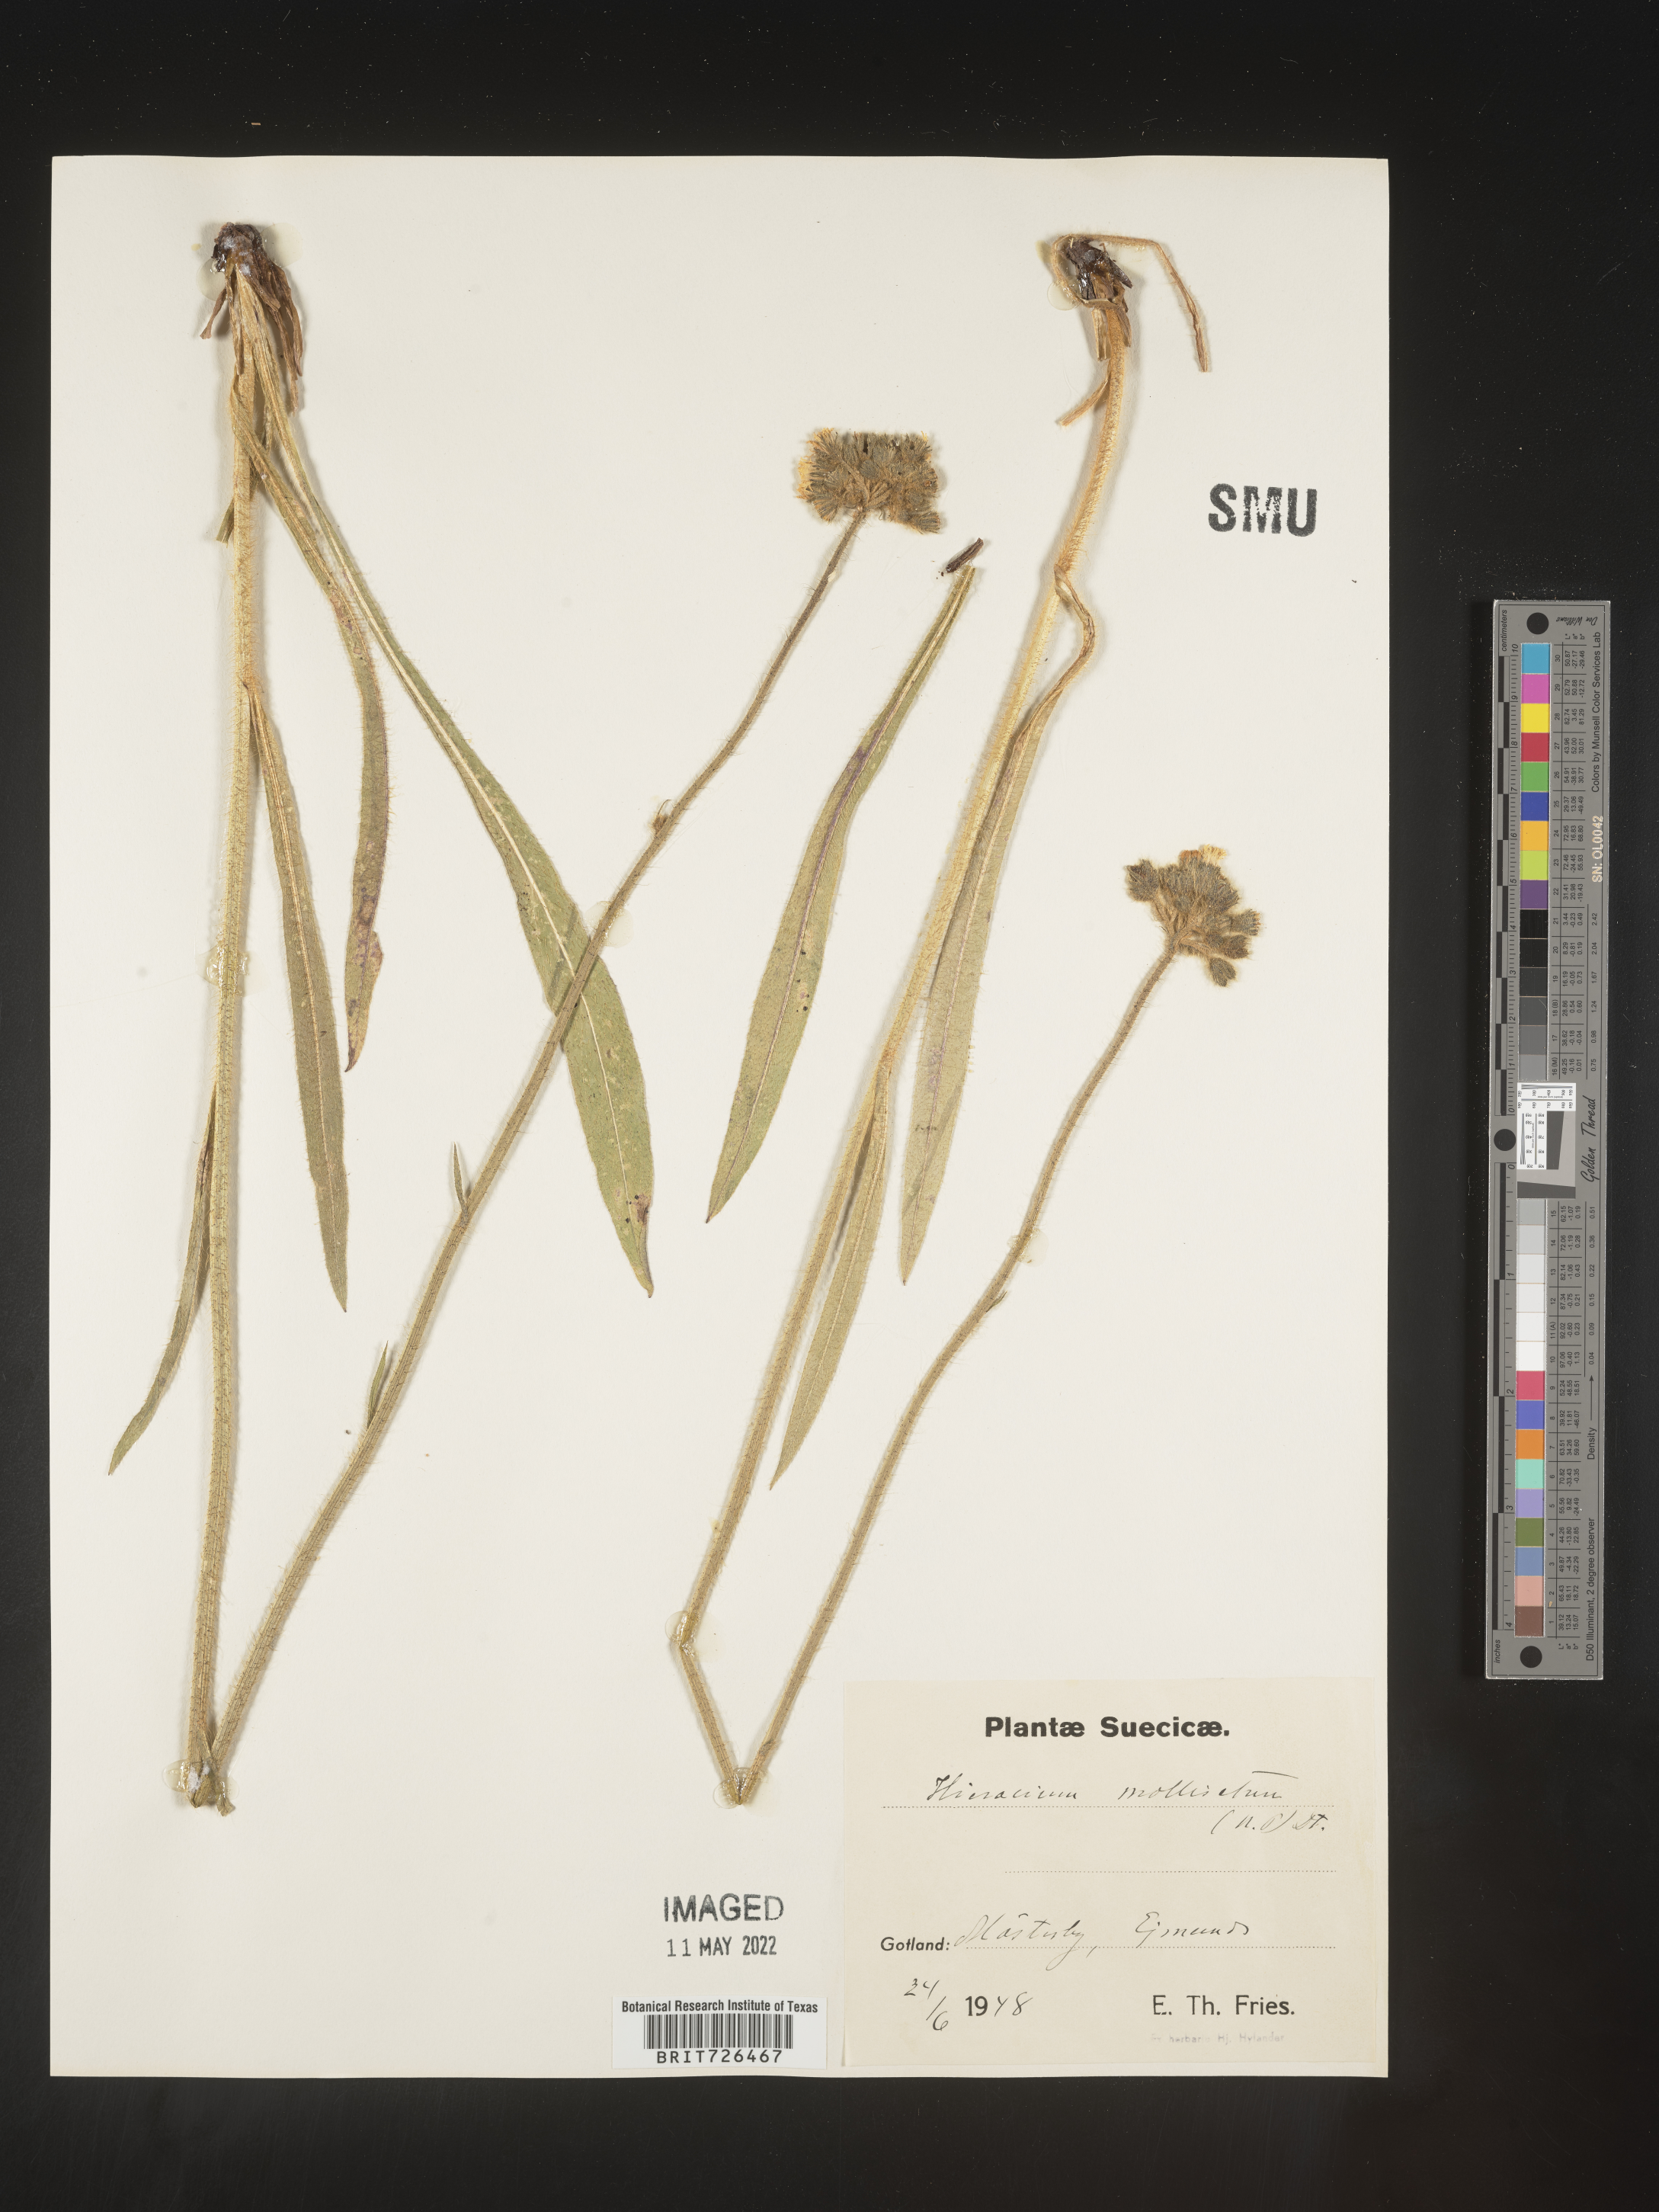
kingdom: Plantae
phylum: Tracheophyta
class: Magnoliopsida
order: Asterales
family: Asteraceae
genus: Hieracium
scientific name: Hieracium
